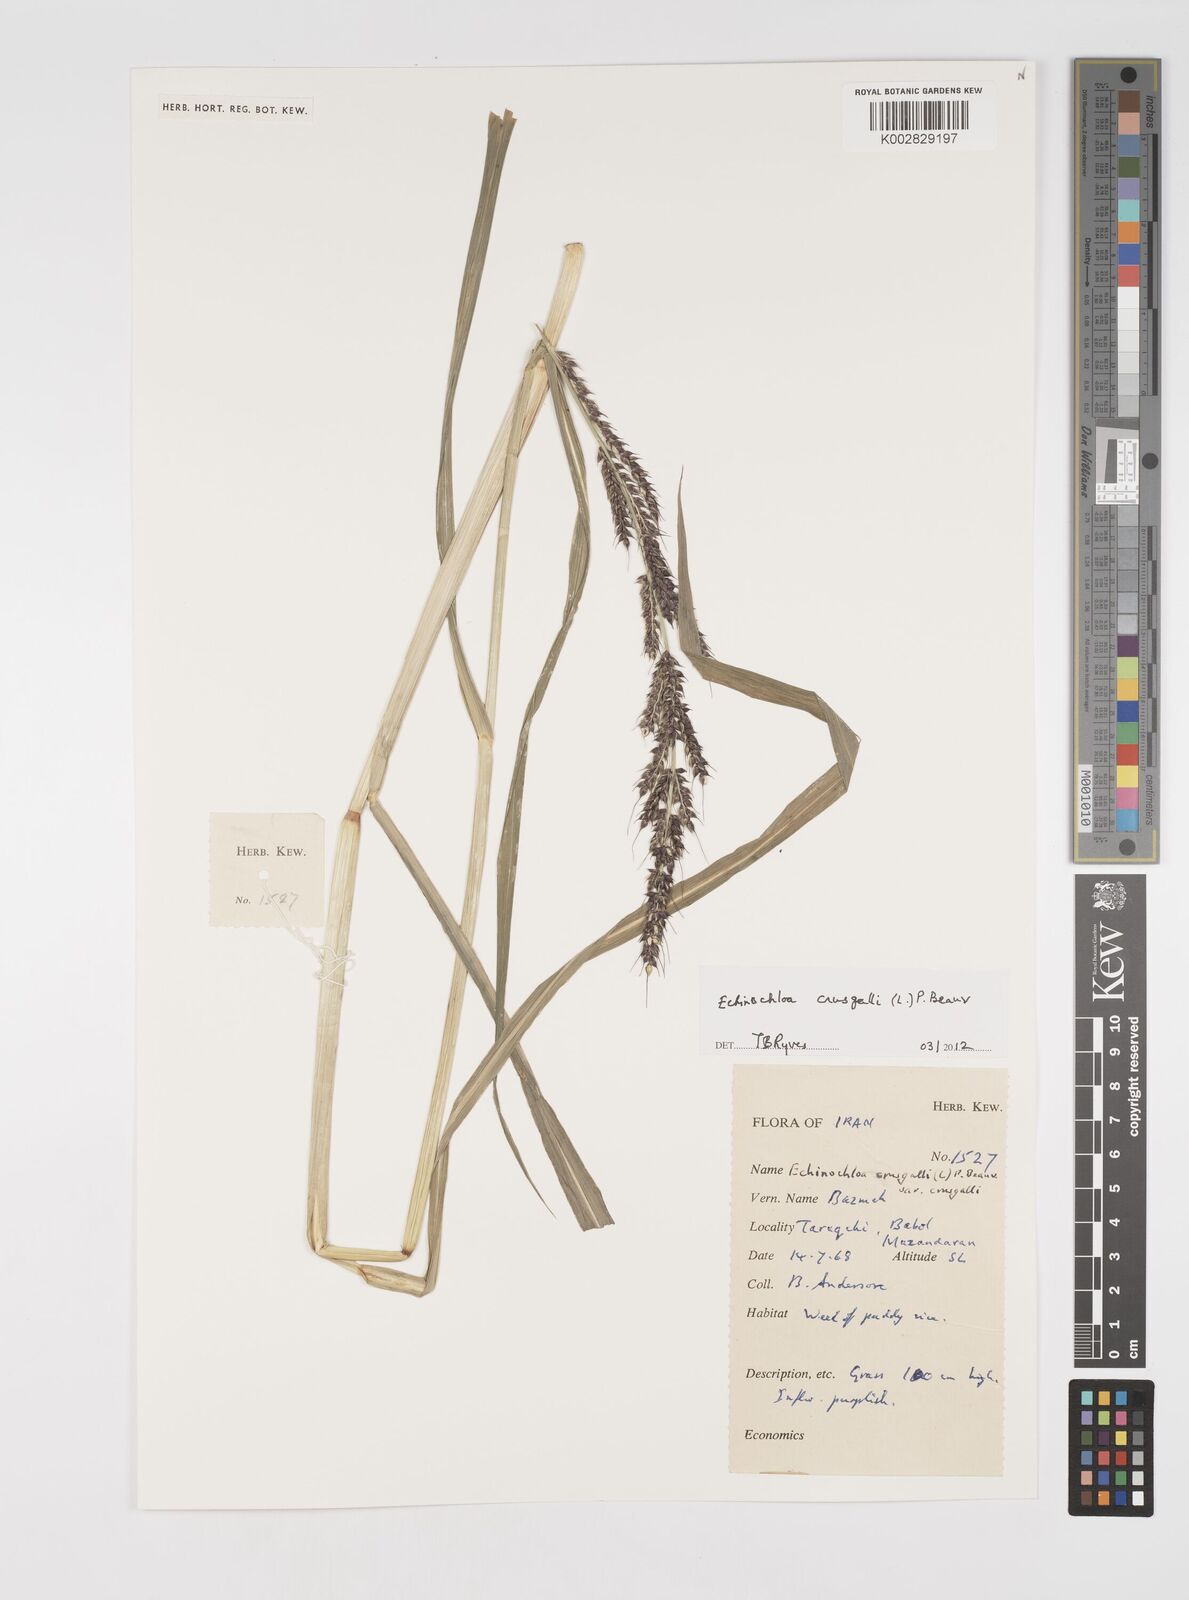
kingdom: Plantae
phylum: Tracheophyta
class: Liliopsida
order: Poales
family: Poaceae
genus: Echinochloa
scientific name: Echinochloa crus-galli
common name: Cockspur
